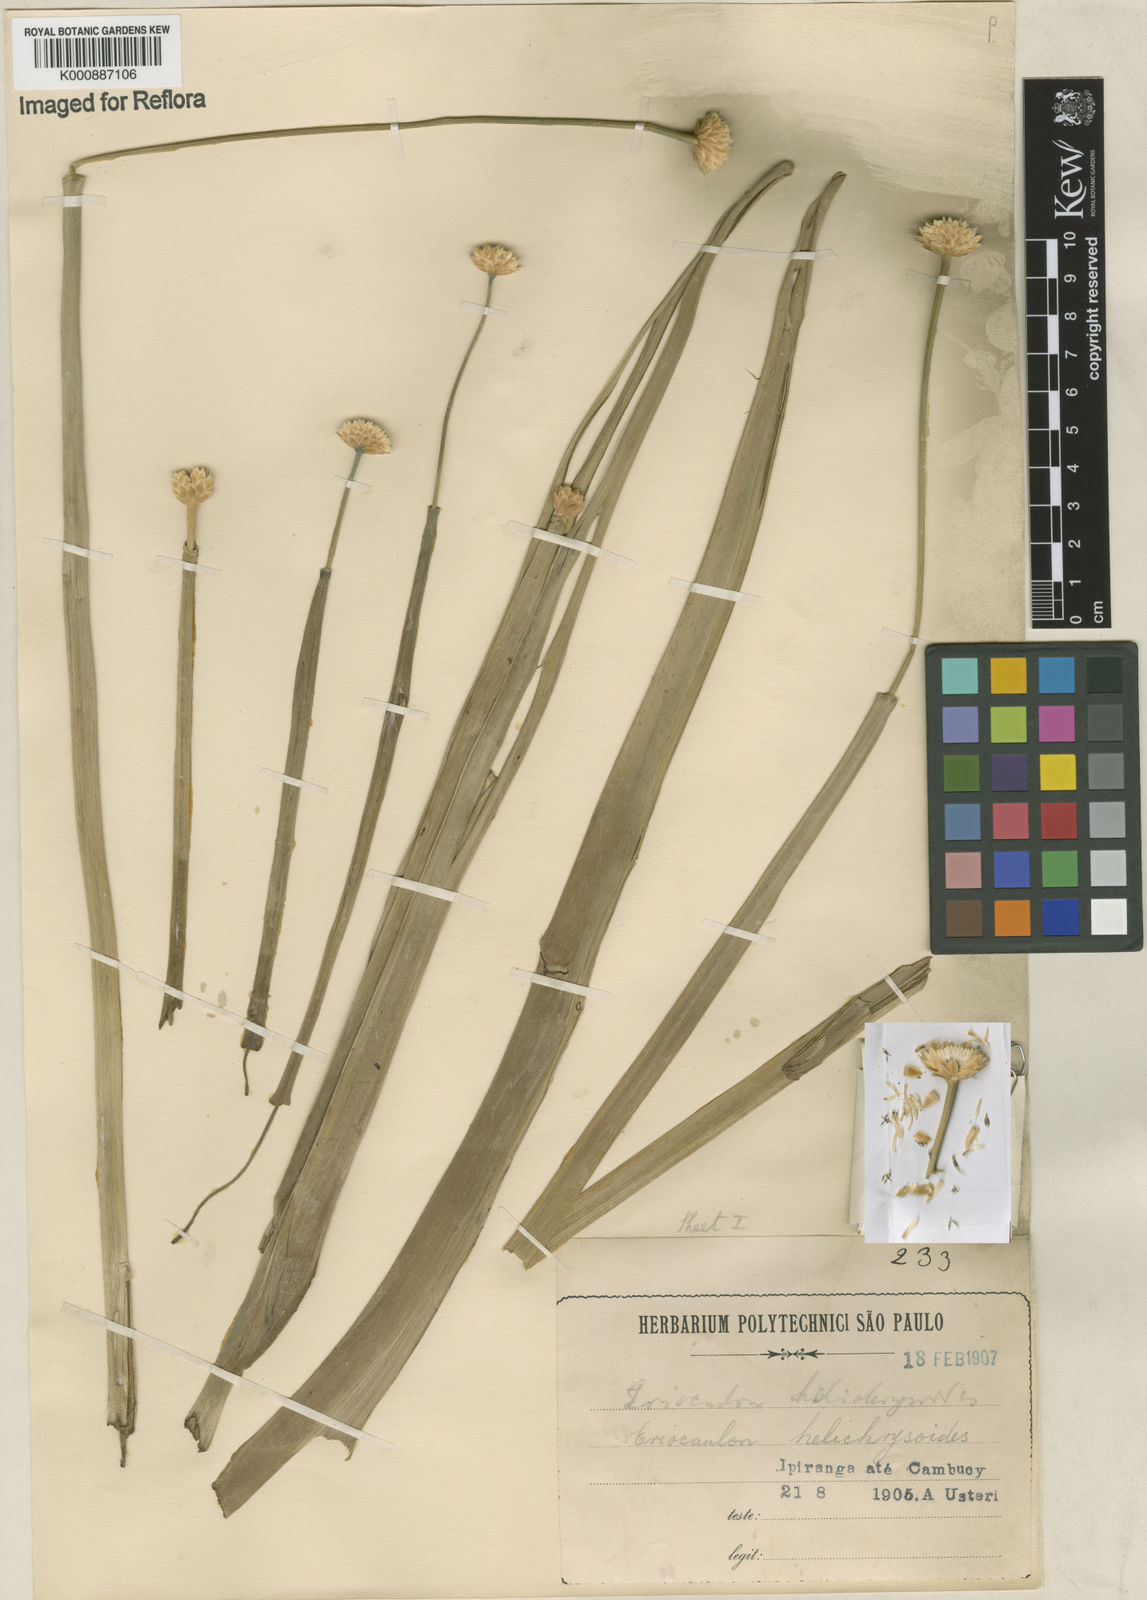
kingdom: Plantae
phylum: Tracheophyta
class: Liliopsida
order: Poales
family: Eriocaulaceae
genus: Paepalanthus
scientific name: Paepalanthus elongatus
